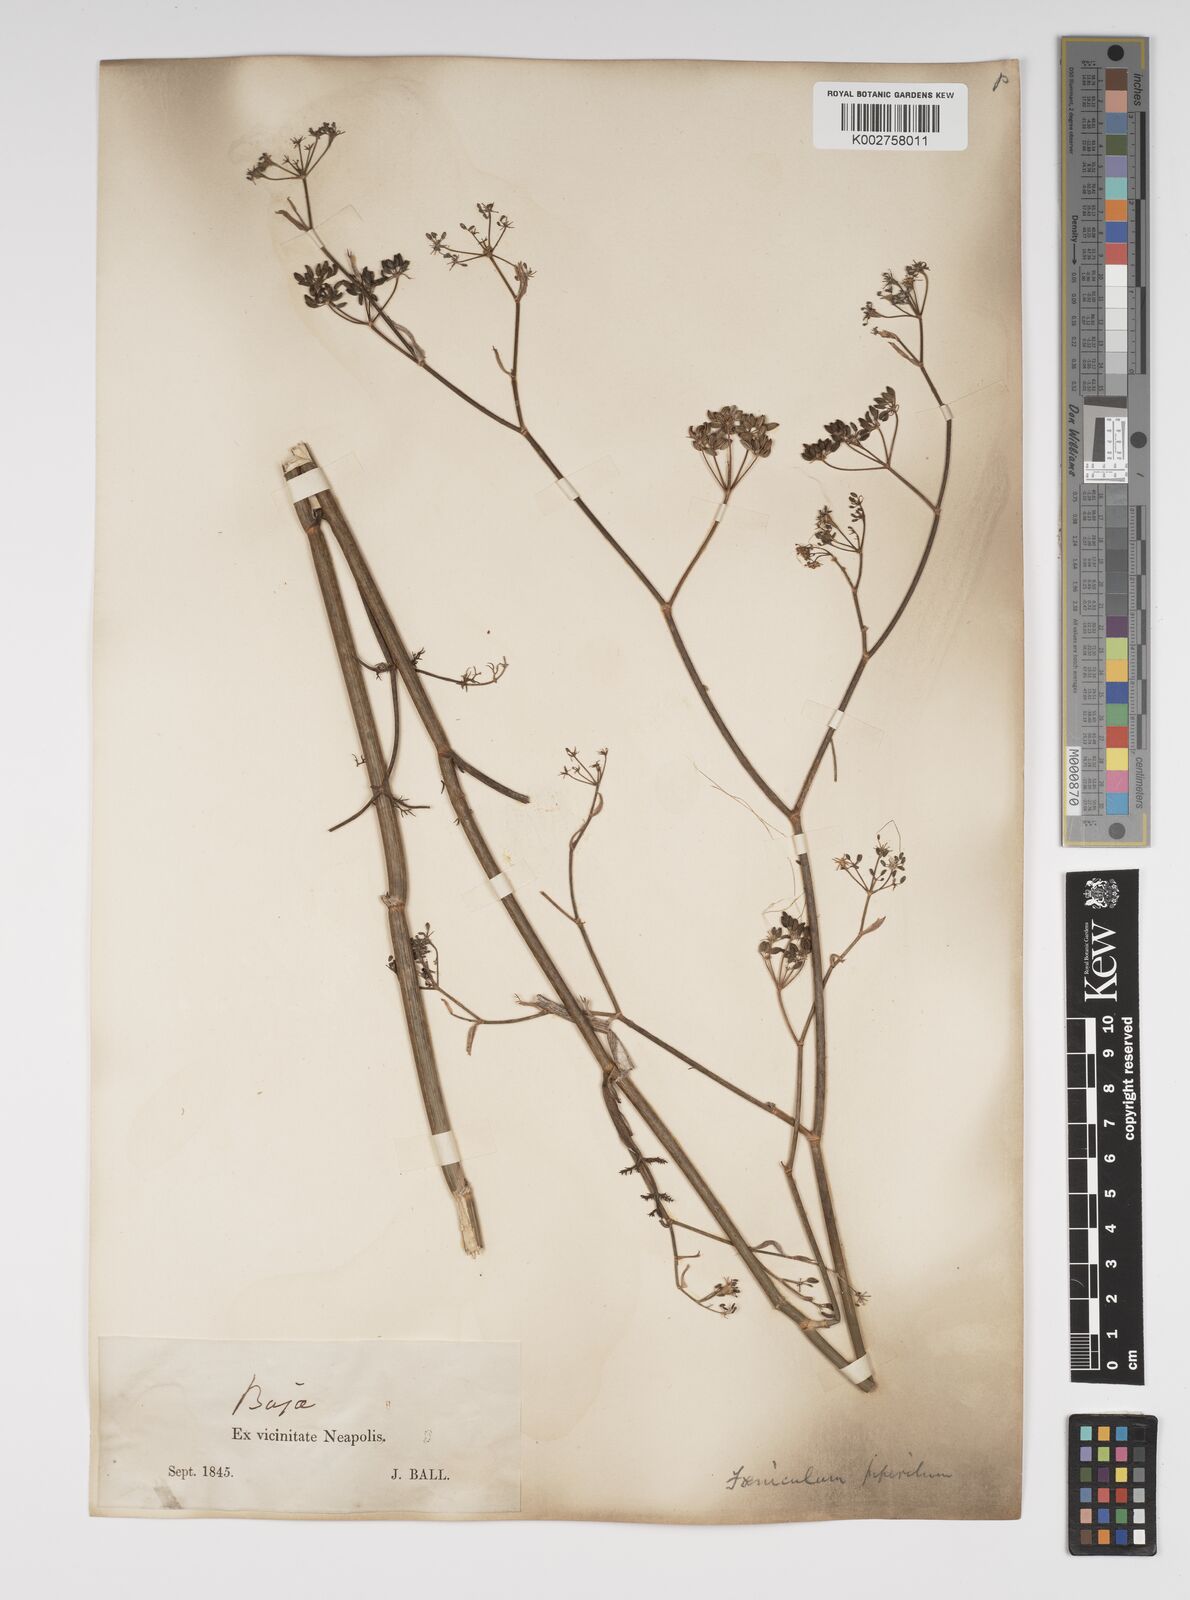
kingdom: Plantae
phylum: Tracheophyta
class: Magnoliopsida
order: Apiales
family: Apiaceae
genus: Foeniculum
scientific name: Foeniculum vulgare
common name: Fennel
